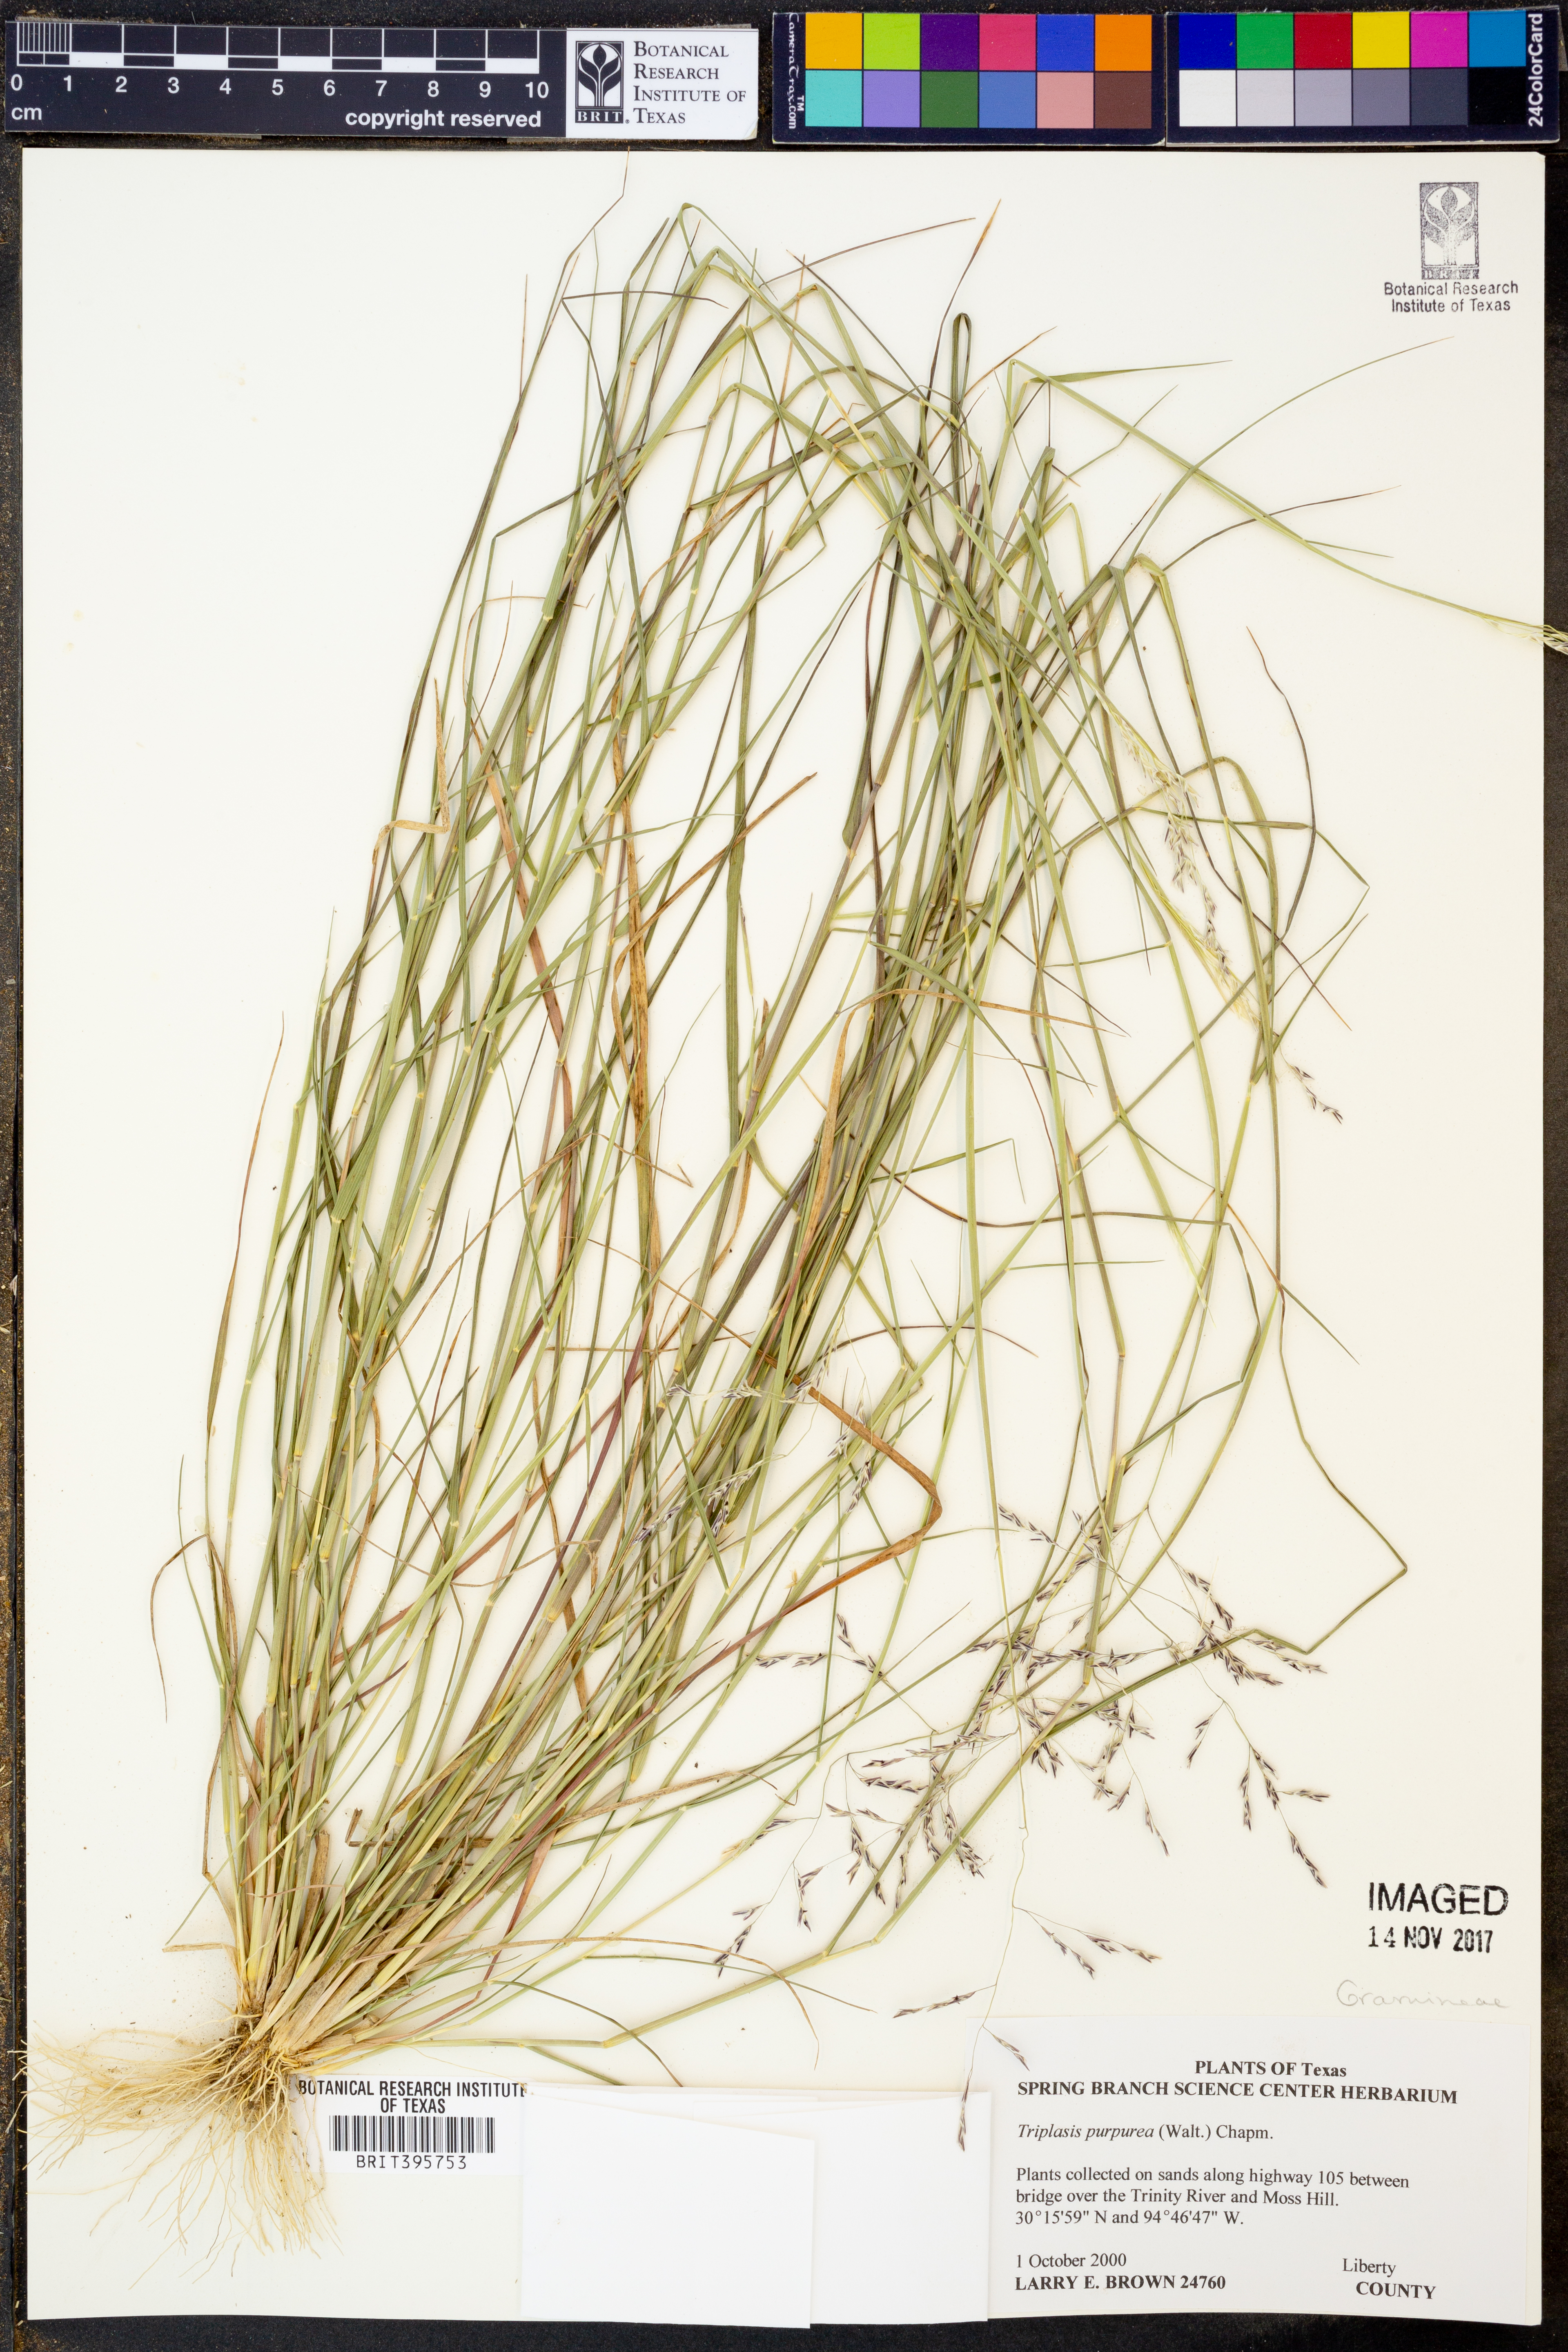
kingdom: Plantae
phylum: Tracheophyta
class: Liliopsida
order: Poales
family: Poaceae
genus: Triplasis
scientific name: Triplasis purpurea
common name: Purple sand grass
